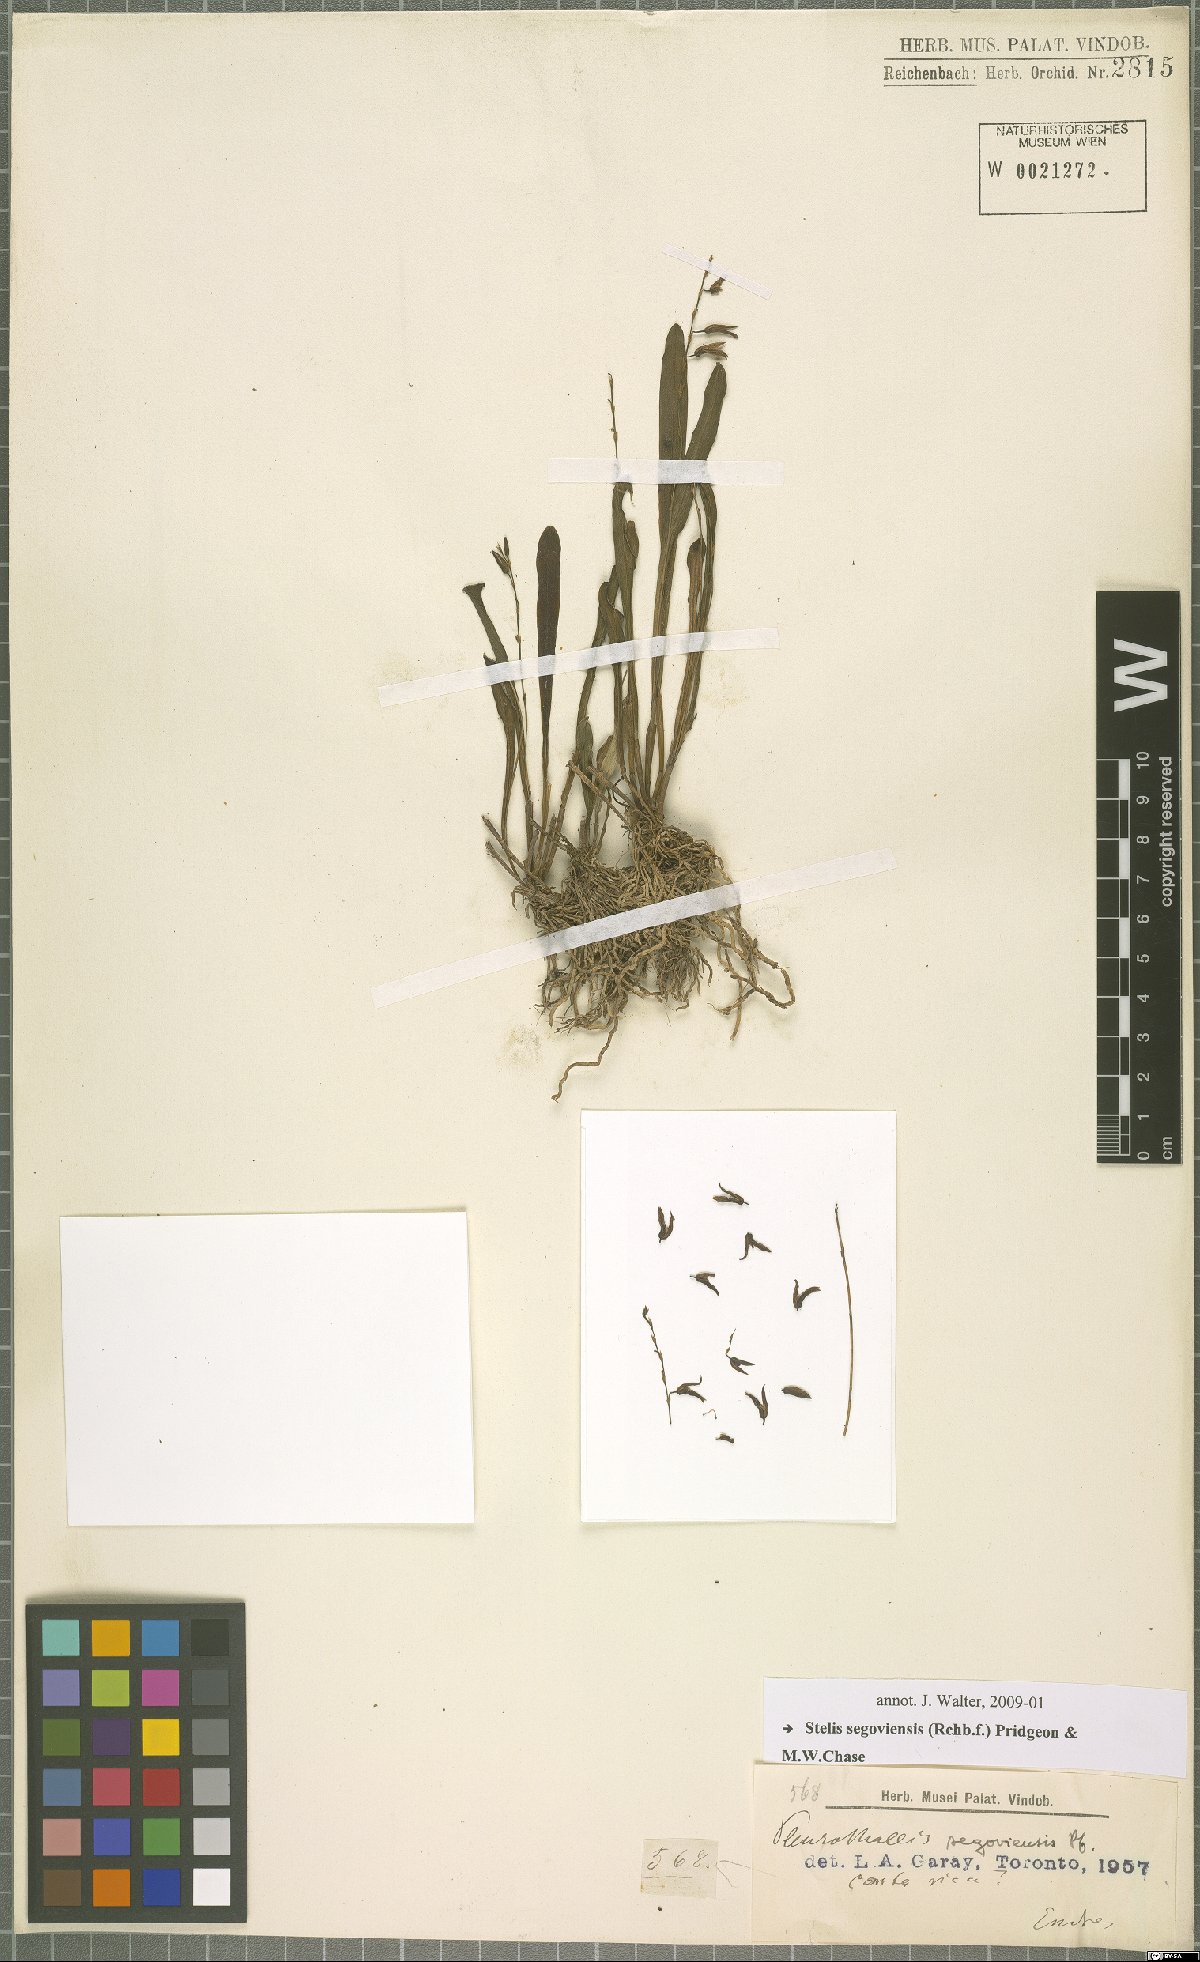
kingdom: Plantae
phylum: Tracheophyta
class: Liliopsida
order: Asparagales
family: Orchidaceae
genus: Stelis
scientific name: Stelis segoviensis
